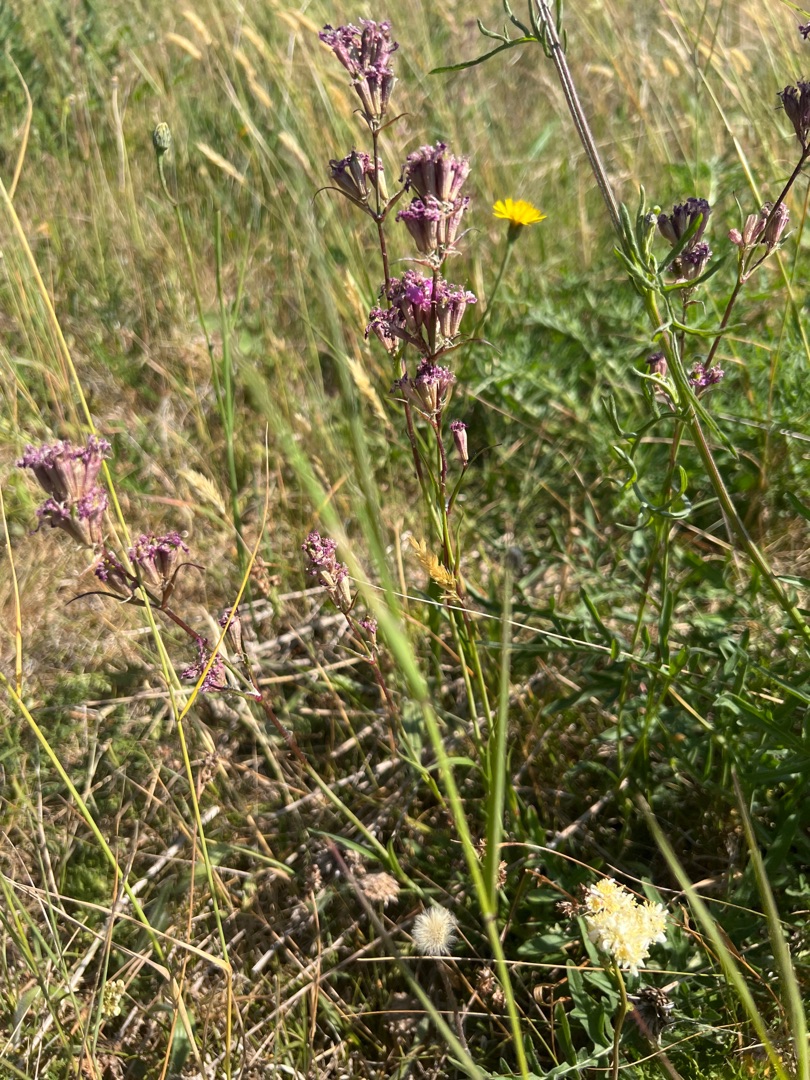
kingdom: Plantae
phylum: Tracheophyta
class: Magnoliopsida
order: Caryophyllales
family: Caryophyllaceae
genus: Viscaria
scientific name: Viscaria vulgaris
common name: Tjærenellike
